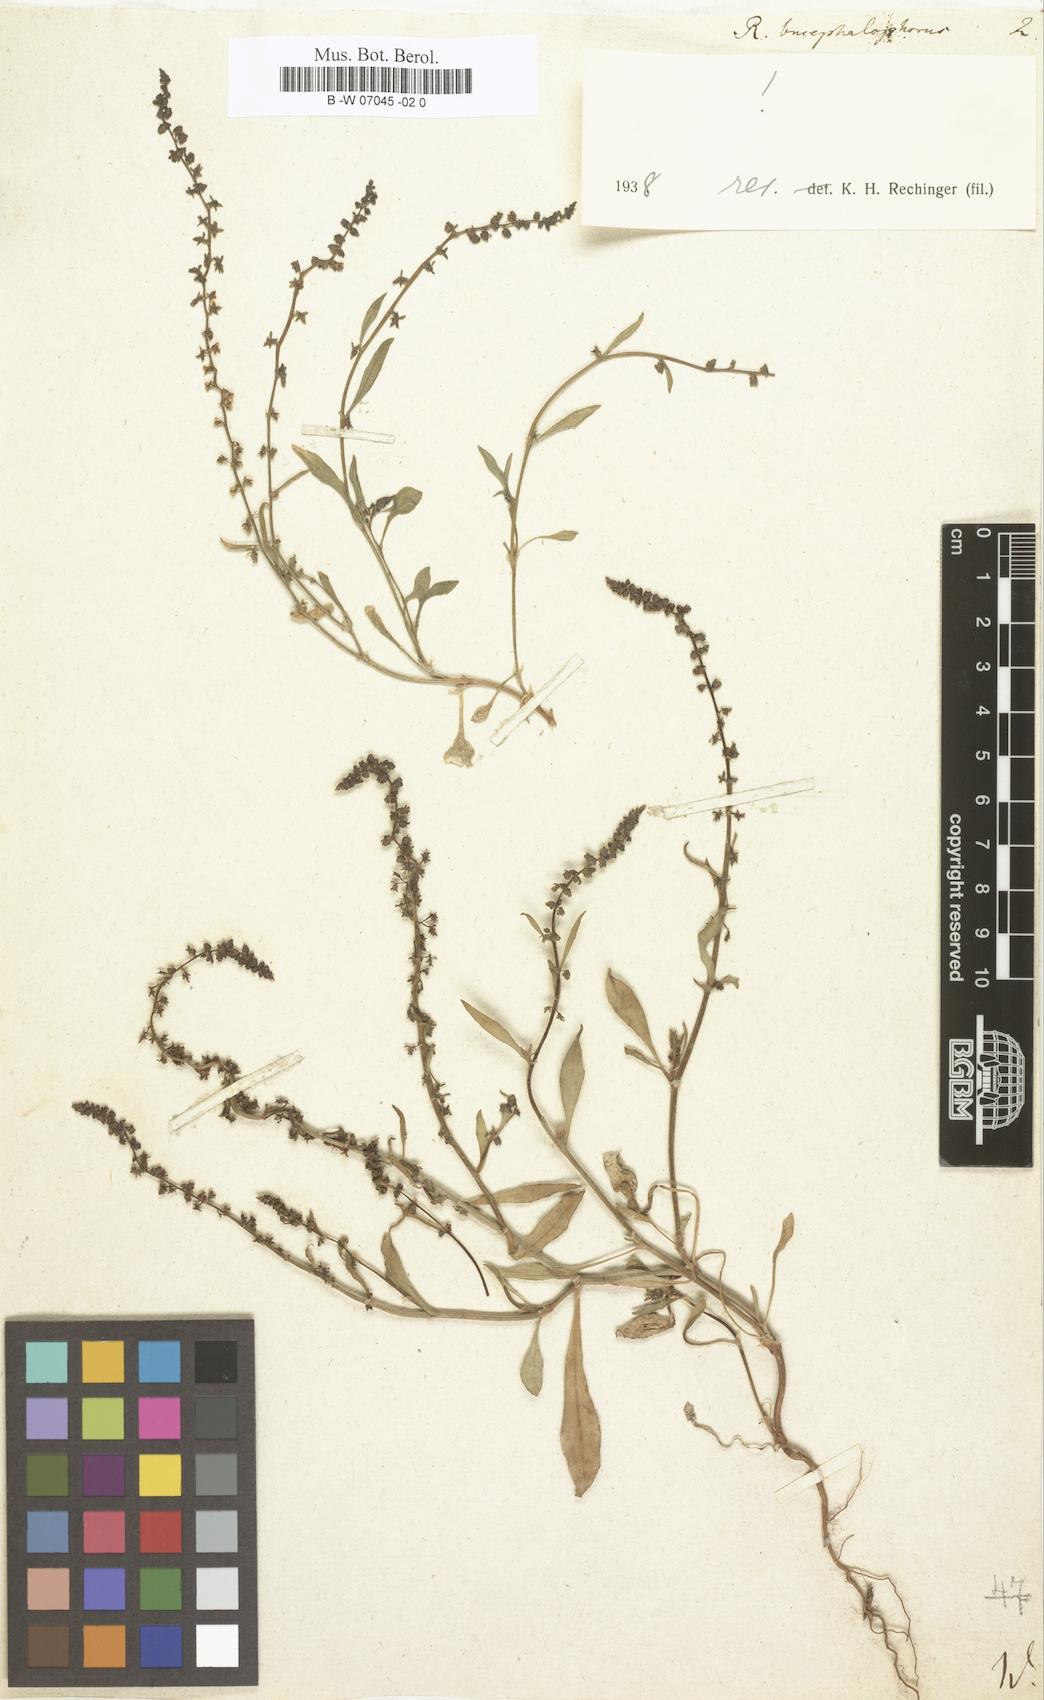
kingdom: Plantae
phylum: Tracheophyta
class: Magnoliopsida
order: Caryophyllales
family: Polygonaceae
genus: Rumex
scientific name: Rumex bucephalophorus
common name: Red dock
